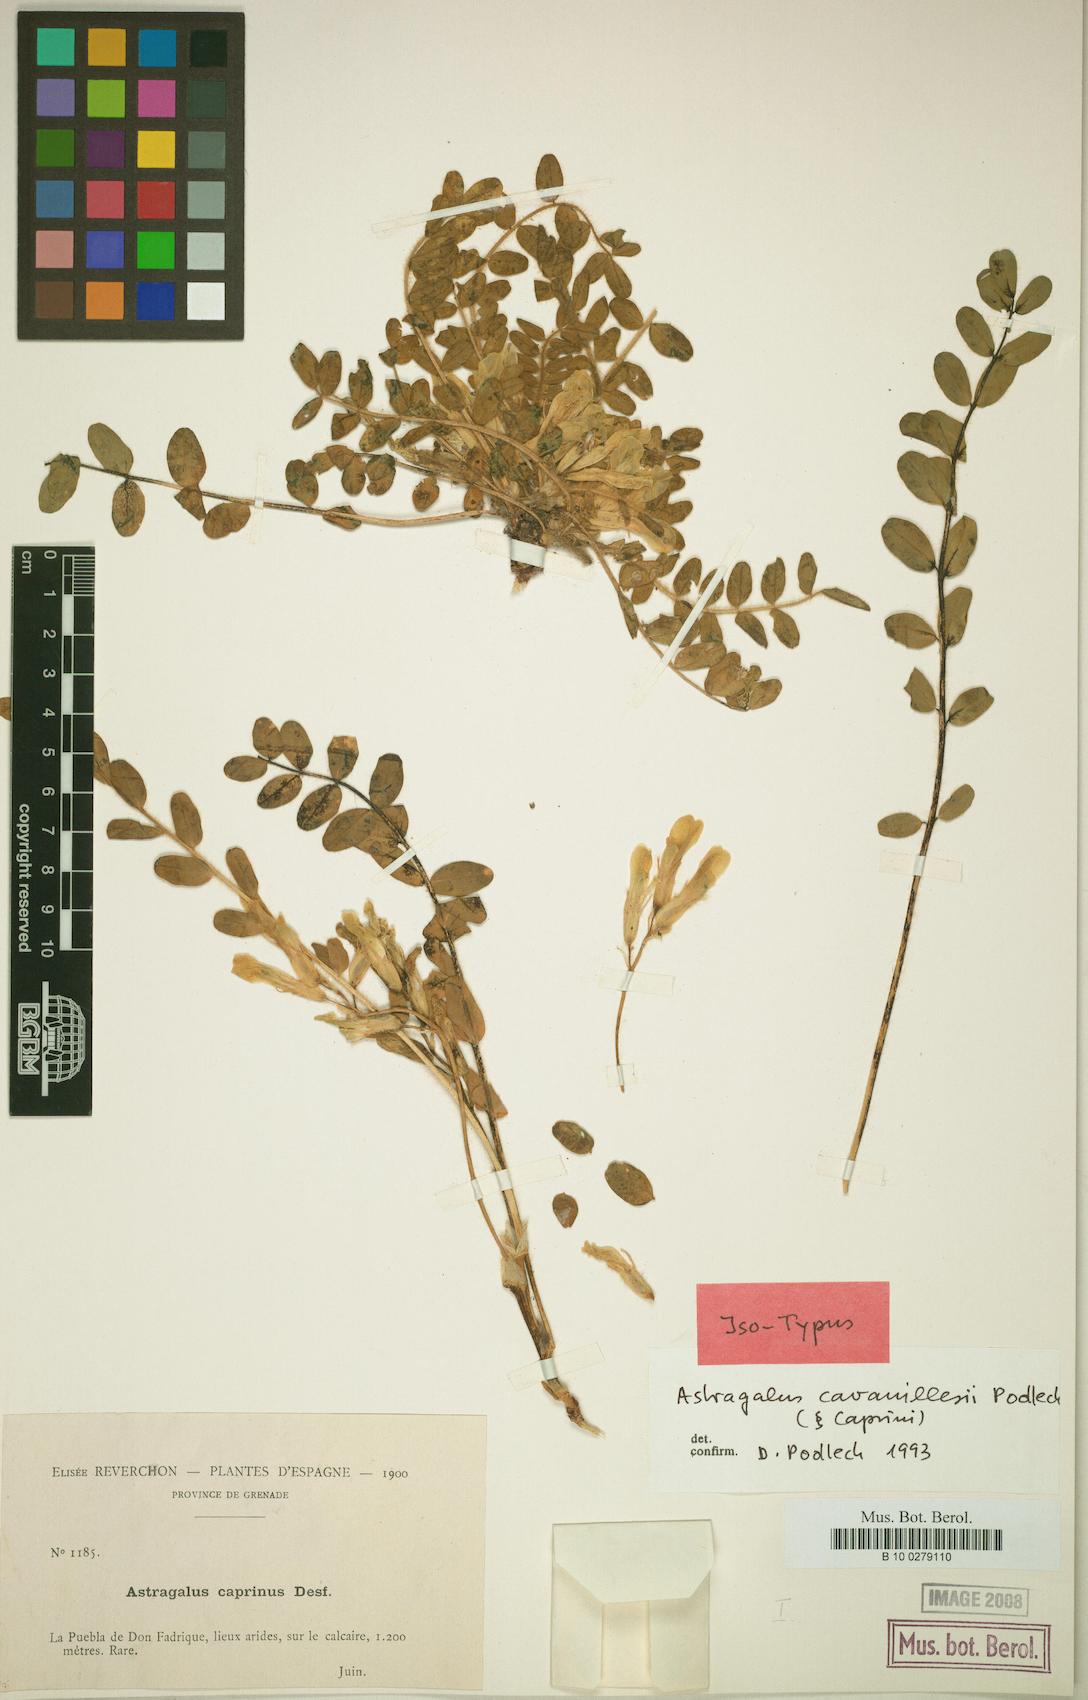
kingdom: Plantae
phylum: Tracheophyta
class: Magnoliopsida
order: Fabales
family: Fabaceae
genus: Astragalus
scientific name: Astragalus cavanillesii
